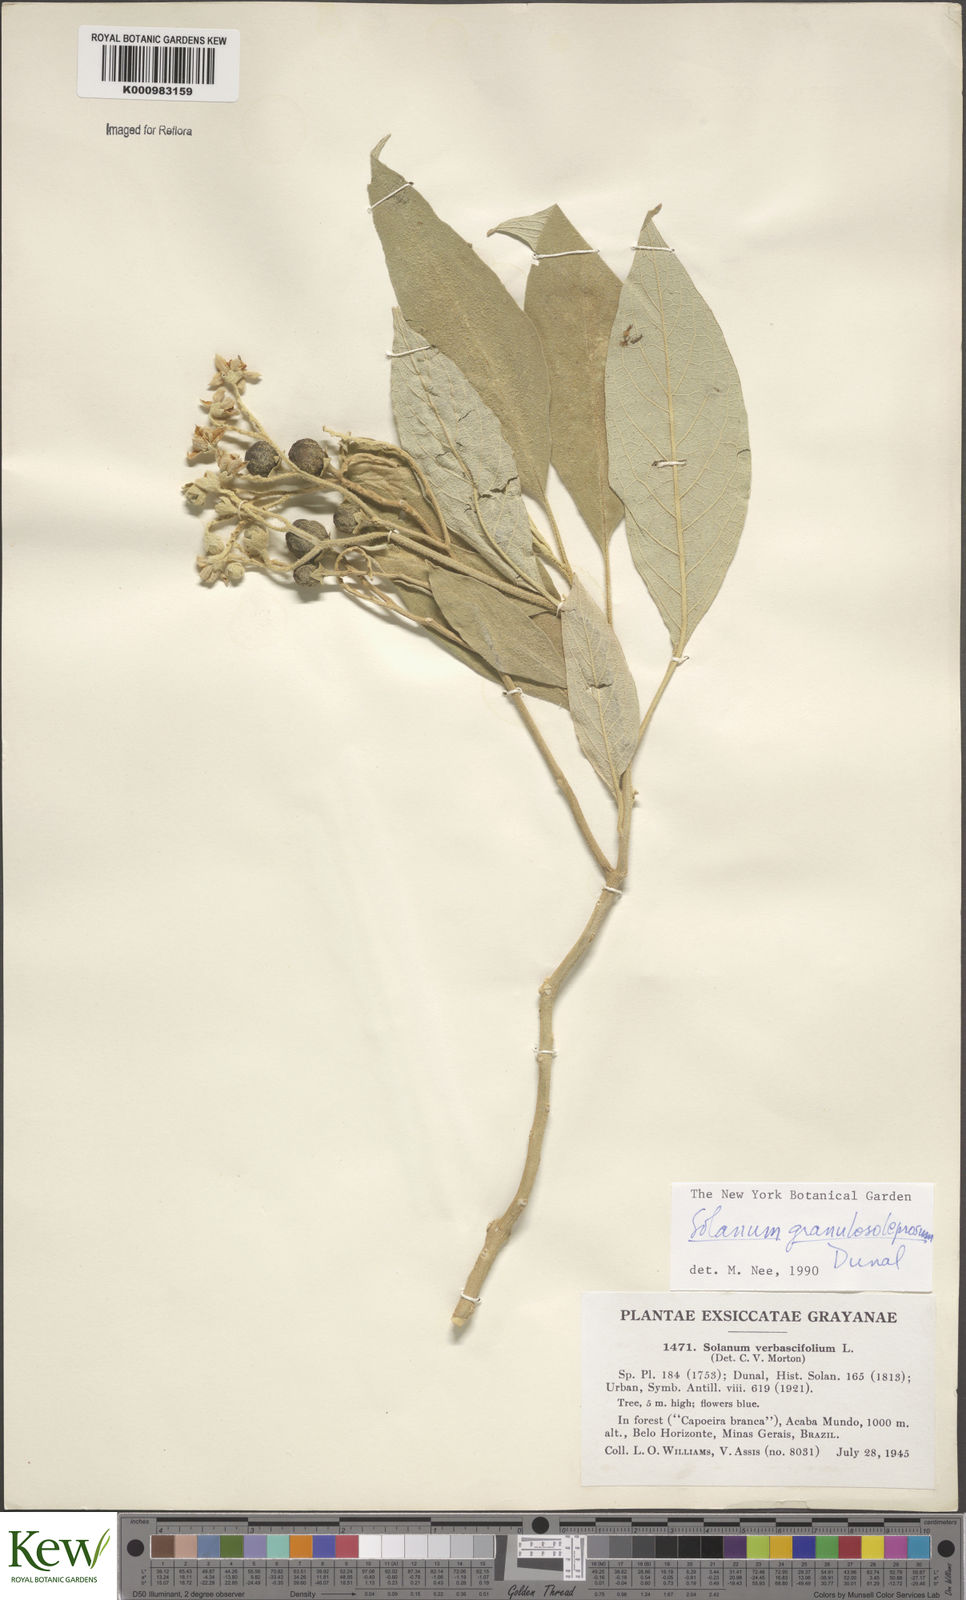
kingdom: Plantae
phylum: Tracheophyta
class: Magnoliopsida
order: Solanales
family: Solanaceae
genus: Solanum
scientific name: Solanum granulosoleprosum
